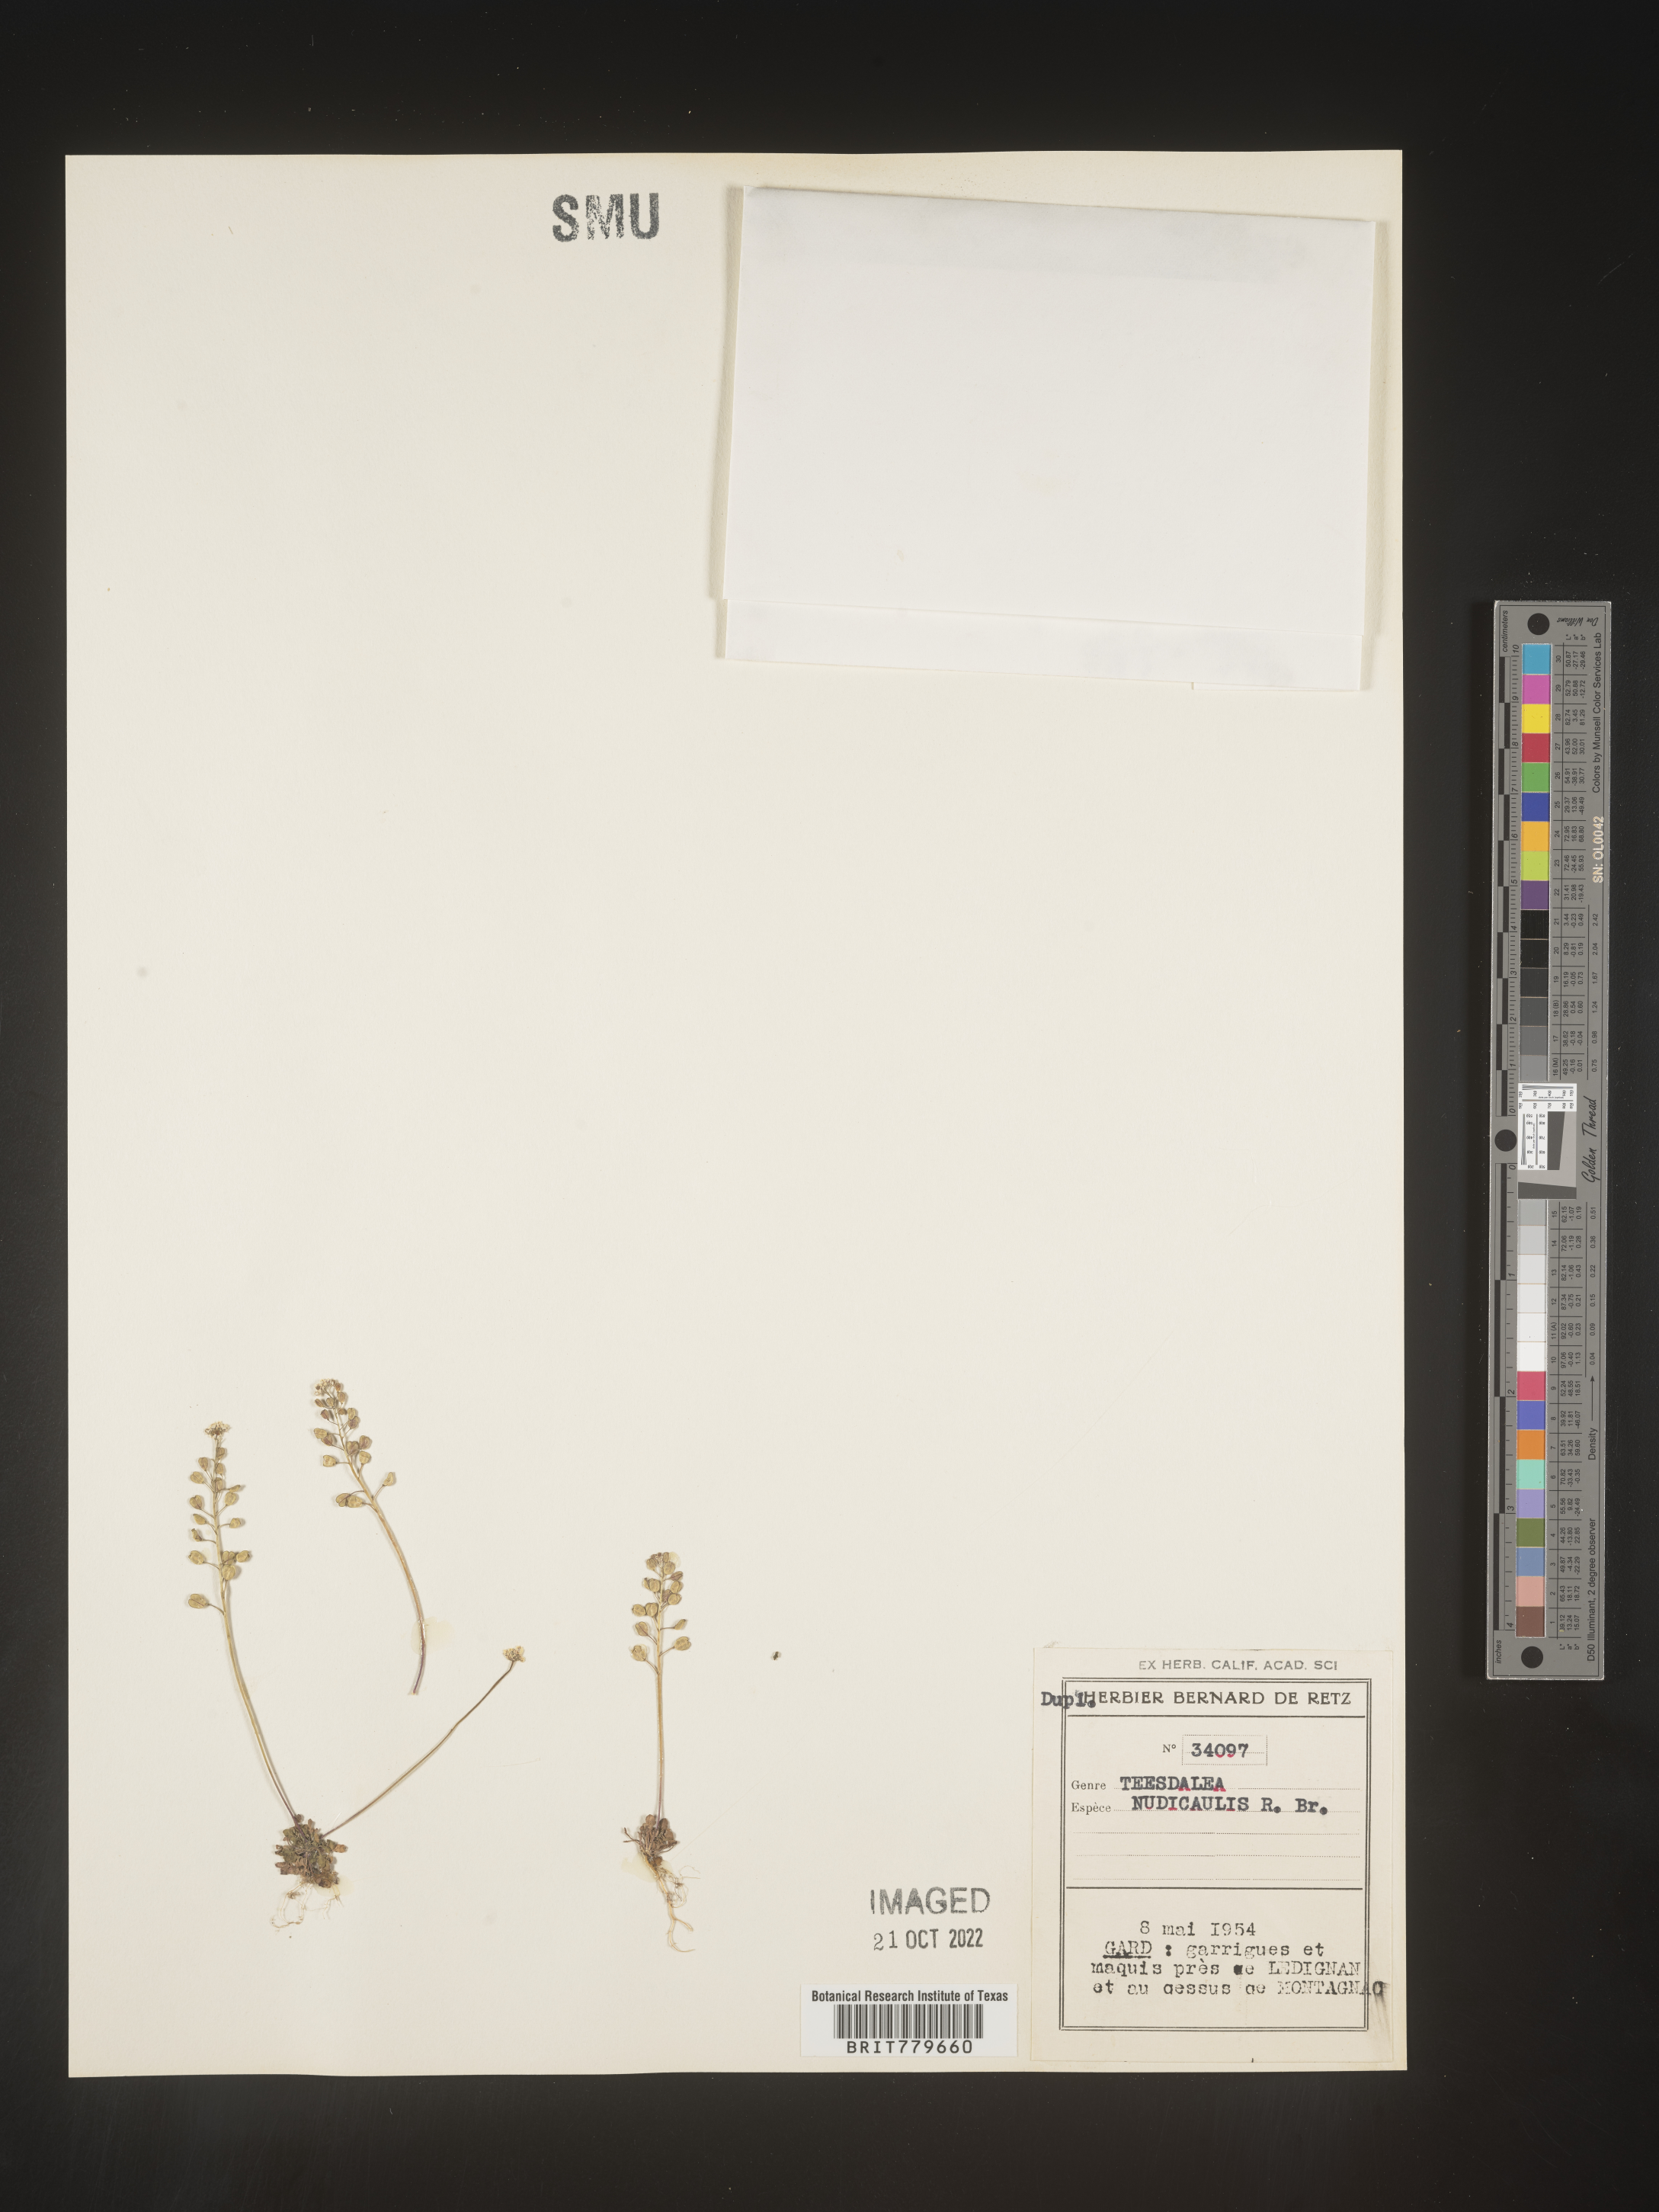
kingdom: Plantae
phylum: Tracheophyta
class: Magnoliopsida
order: Brassicales
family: Brassicaceae
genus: Teesdalia
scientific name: Teesdalia
